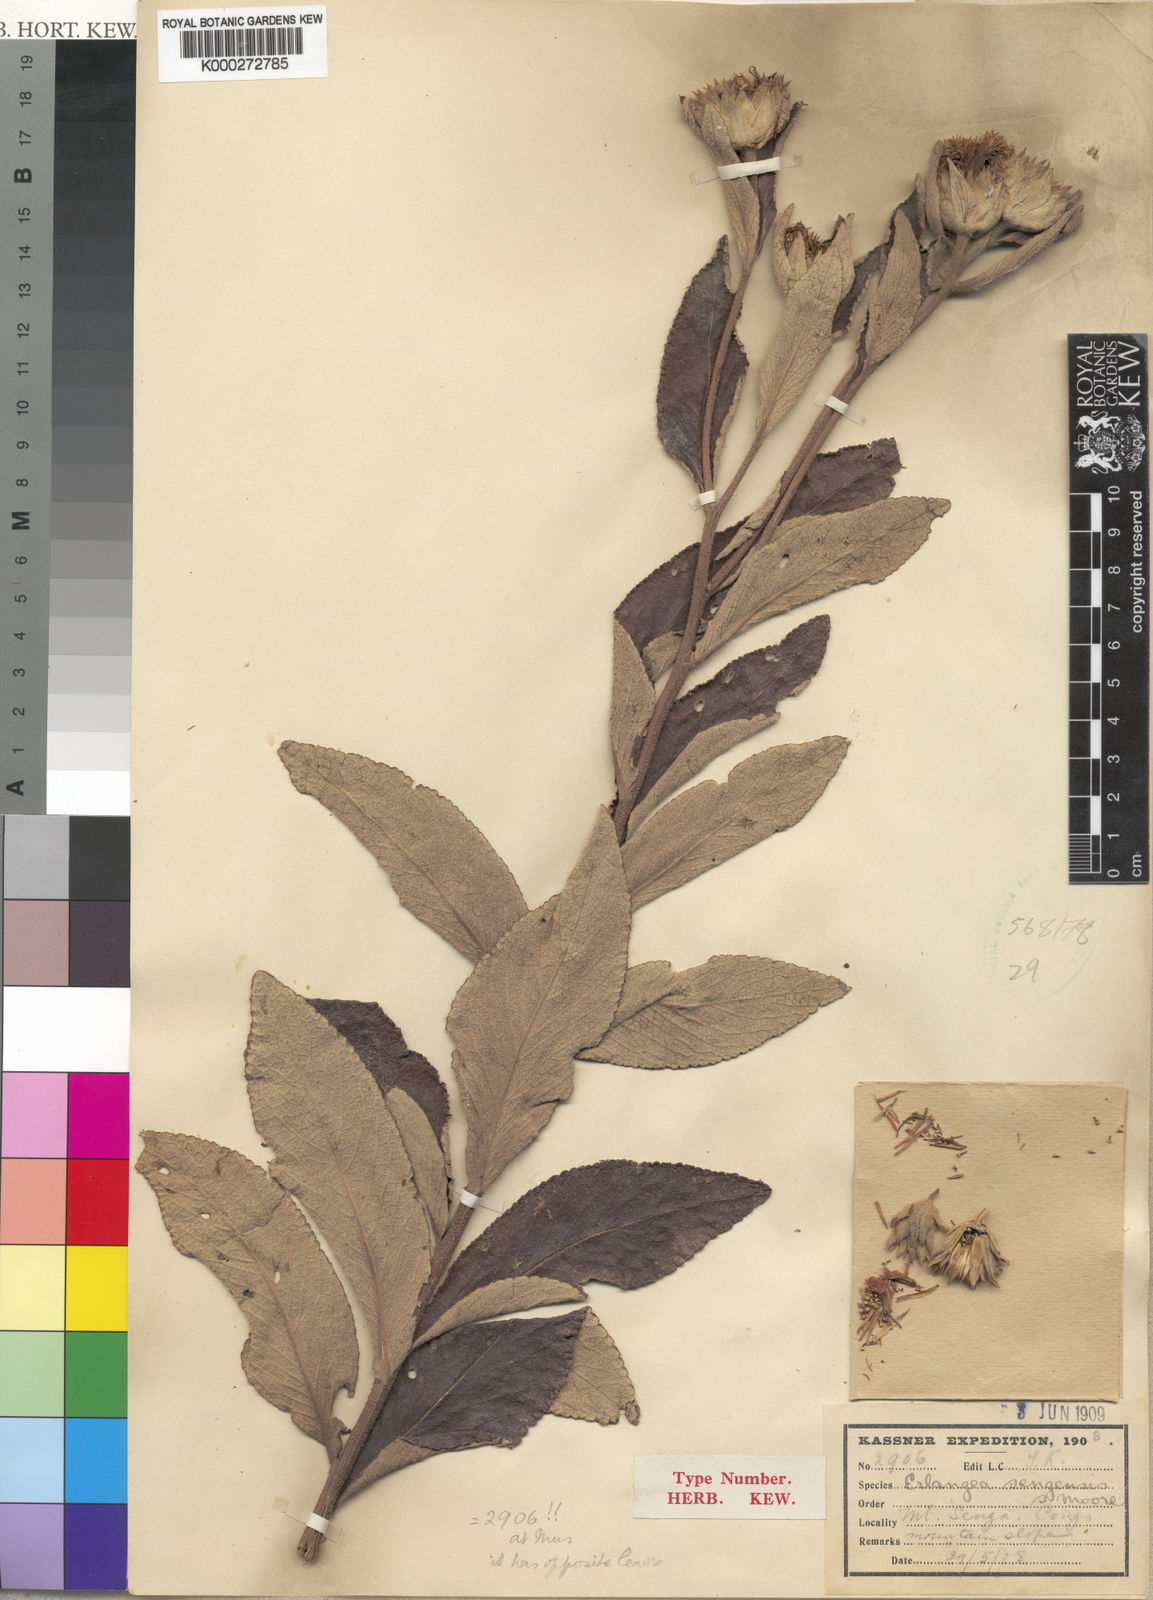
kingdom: Plantae
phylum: Tracheophyta
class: Magnoliopsida
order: Asterales
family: Asteraceae
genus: Bothriocline
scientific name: Bothriocline sengensis
